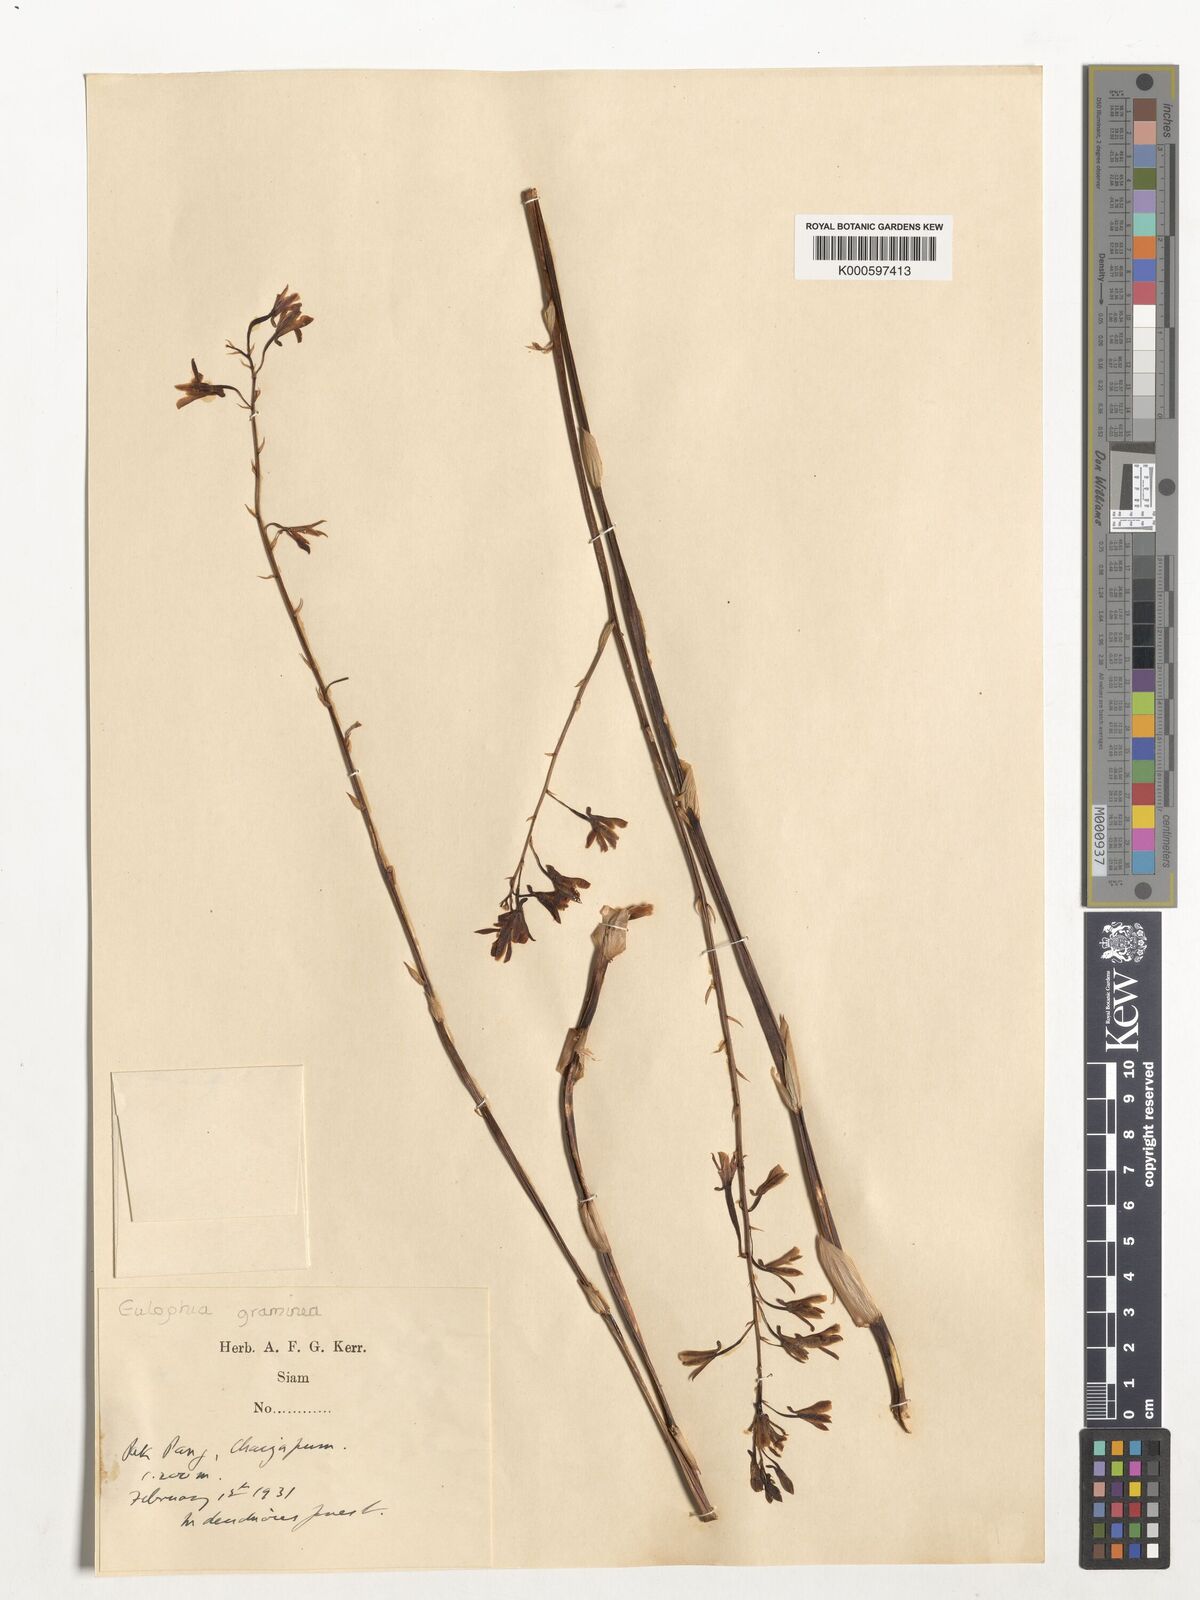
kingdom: Plantae
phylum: Tracheophyta
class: Liliopsida
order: Asparagales
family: Orchidaceae
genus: Eulophia
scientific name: Eulophia graminea
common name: Orchid
